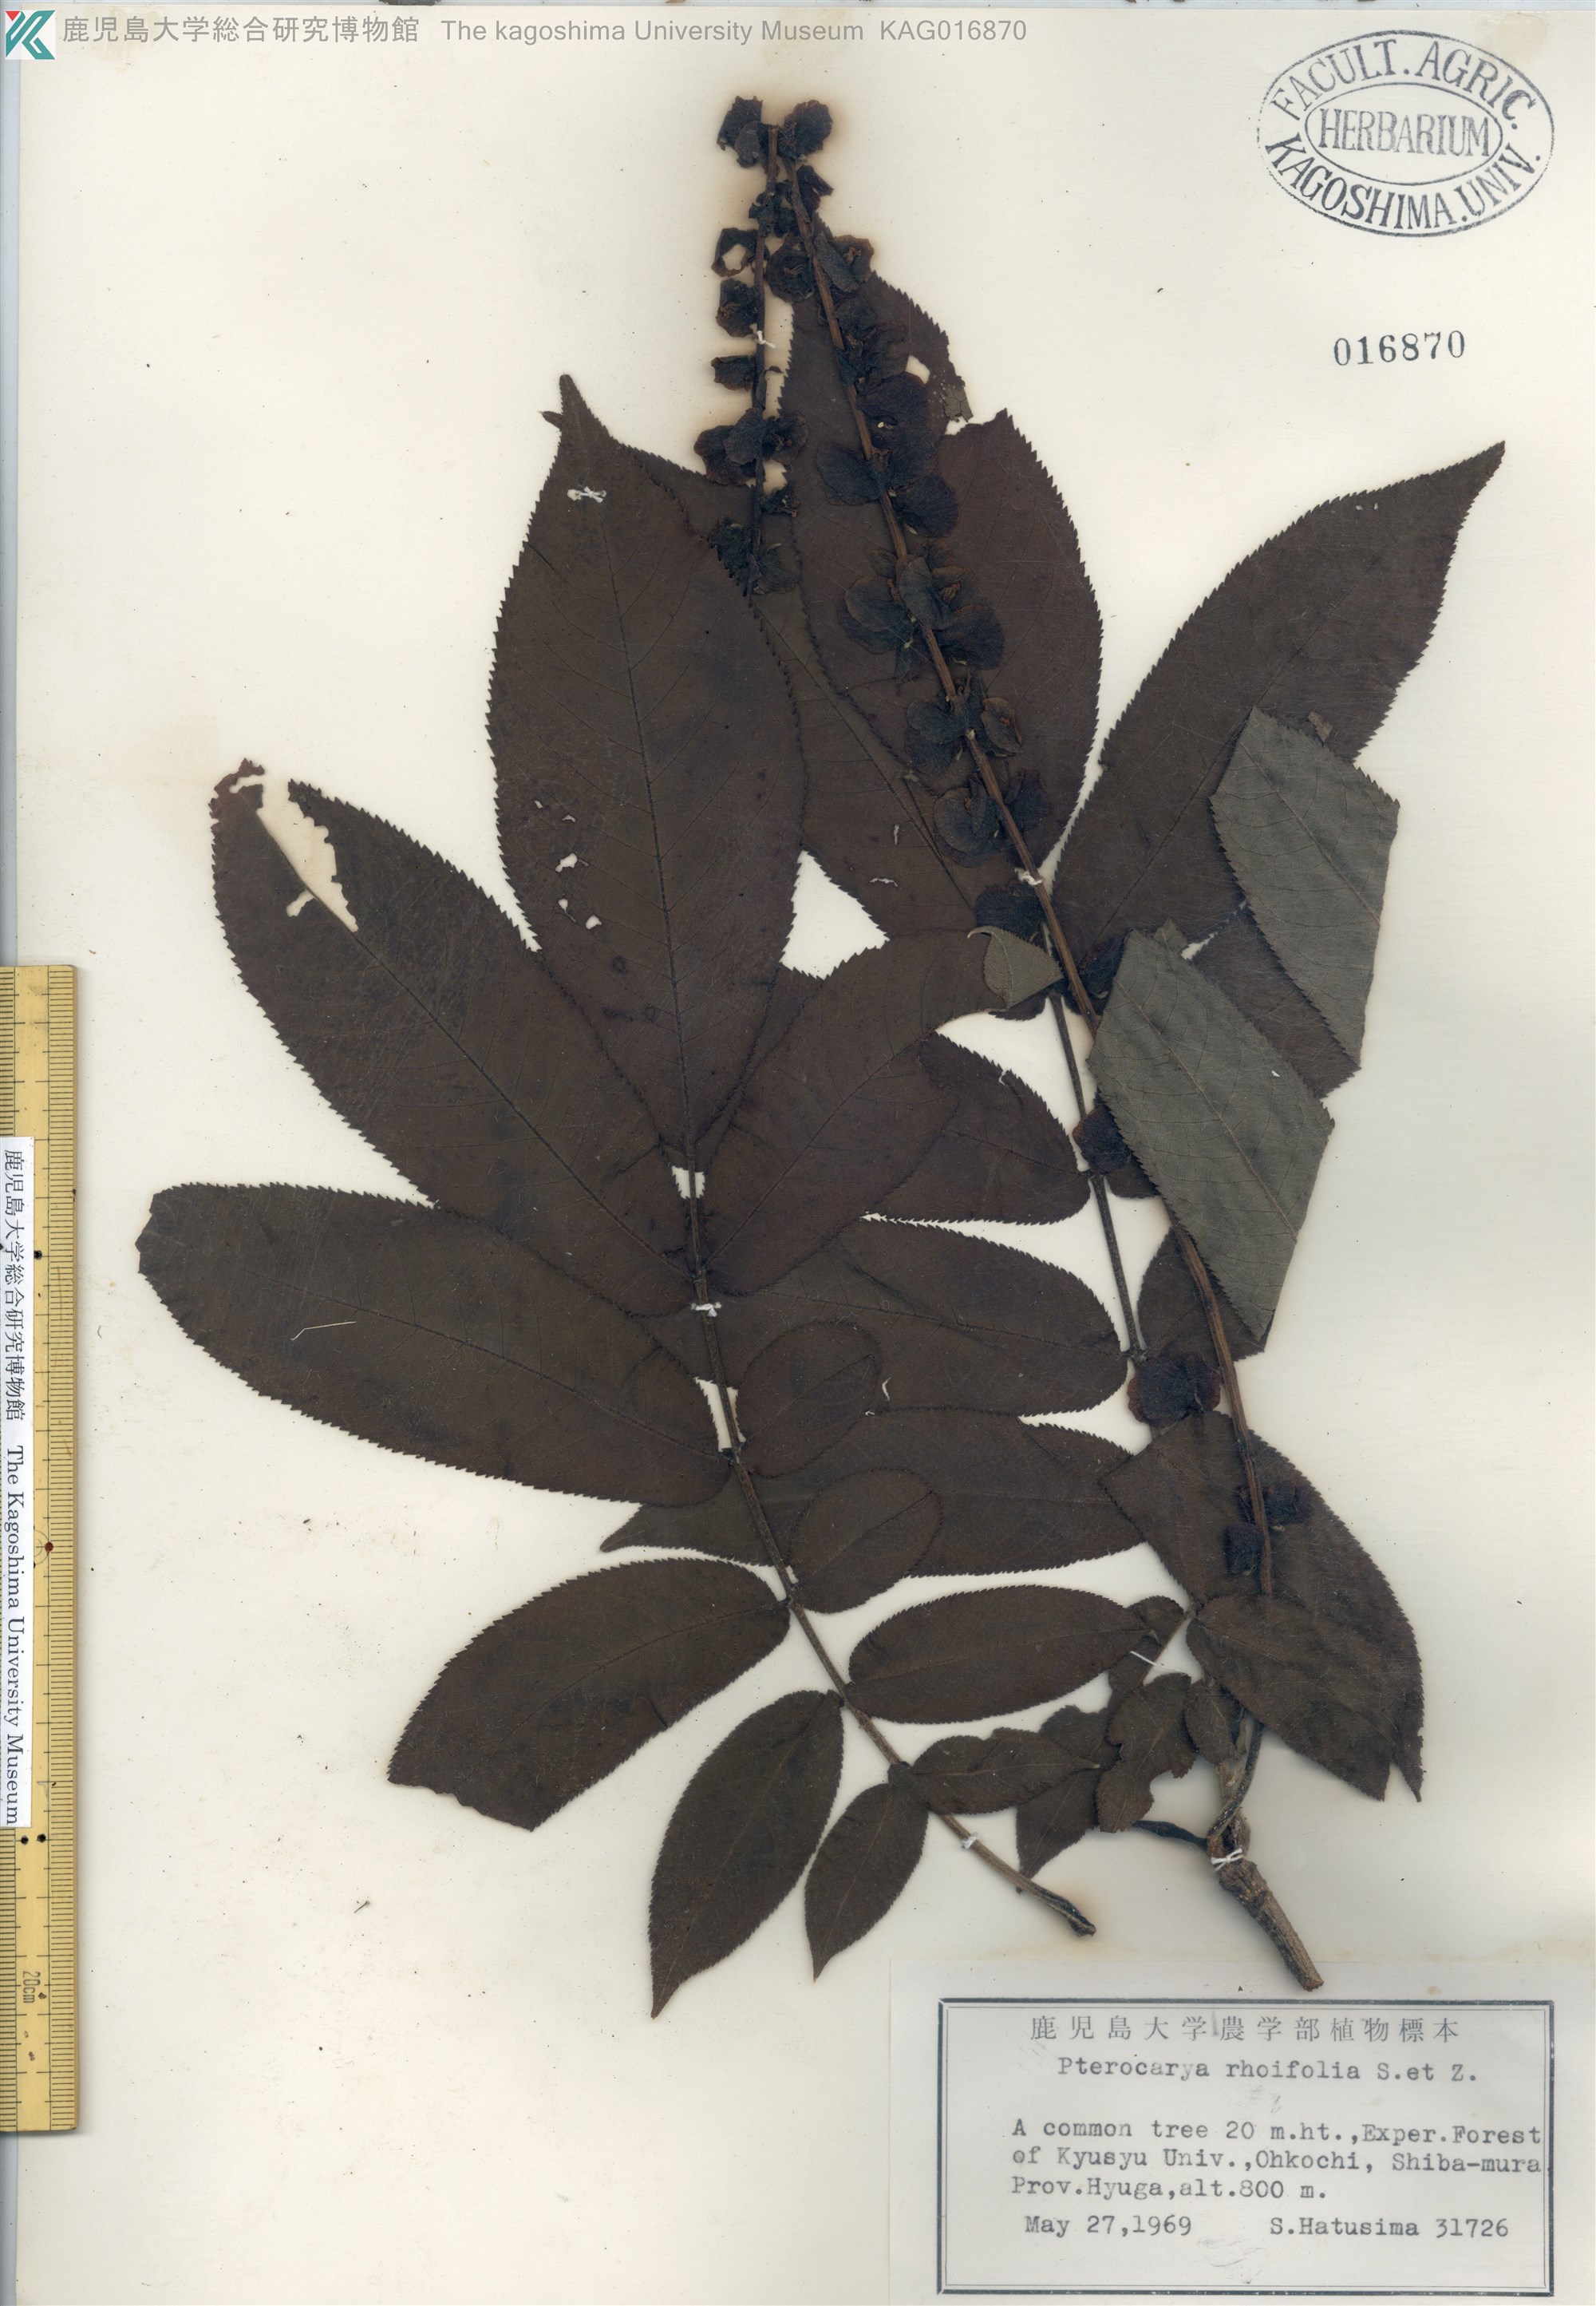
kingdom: Plantae
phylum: Tracheophyta
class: Magnoliopsida
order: Fagales
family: Juglandaceae
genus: Pterocarya
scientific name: Pterocarya rhoifolia
